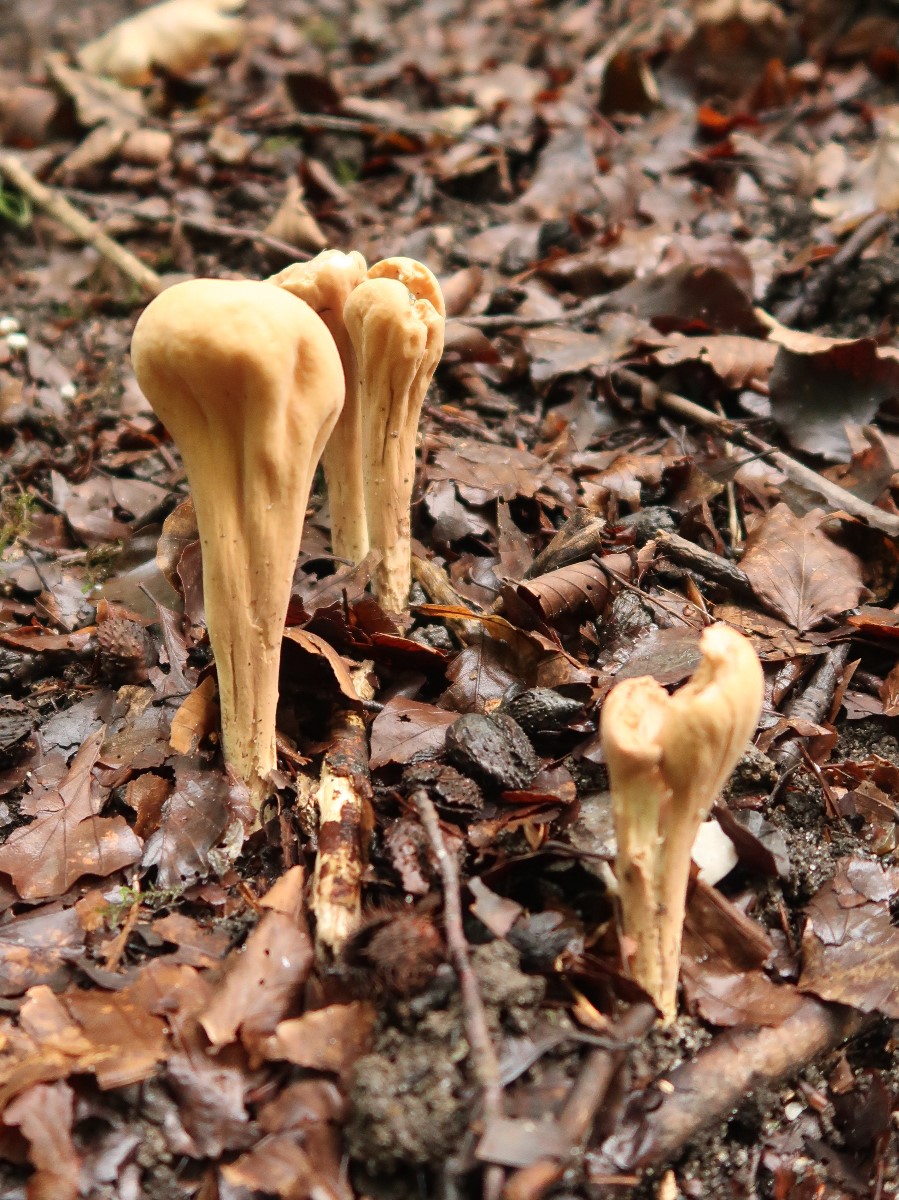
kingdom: Fungi
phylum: Basidiomycota
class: Agaricomycetes
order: Gomphales
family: Clavariadelphaceae
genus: Clavariadelphus
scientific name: Clavariadelphus pistillaris
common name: herkules-kæmpekølle
